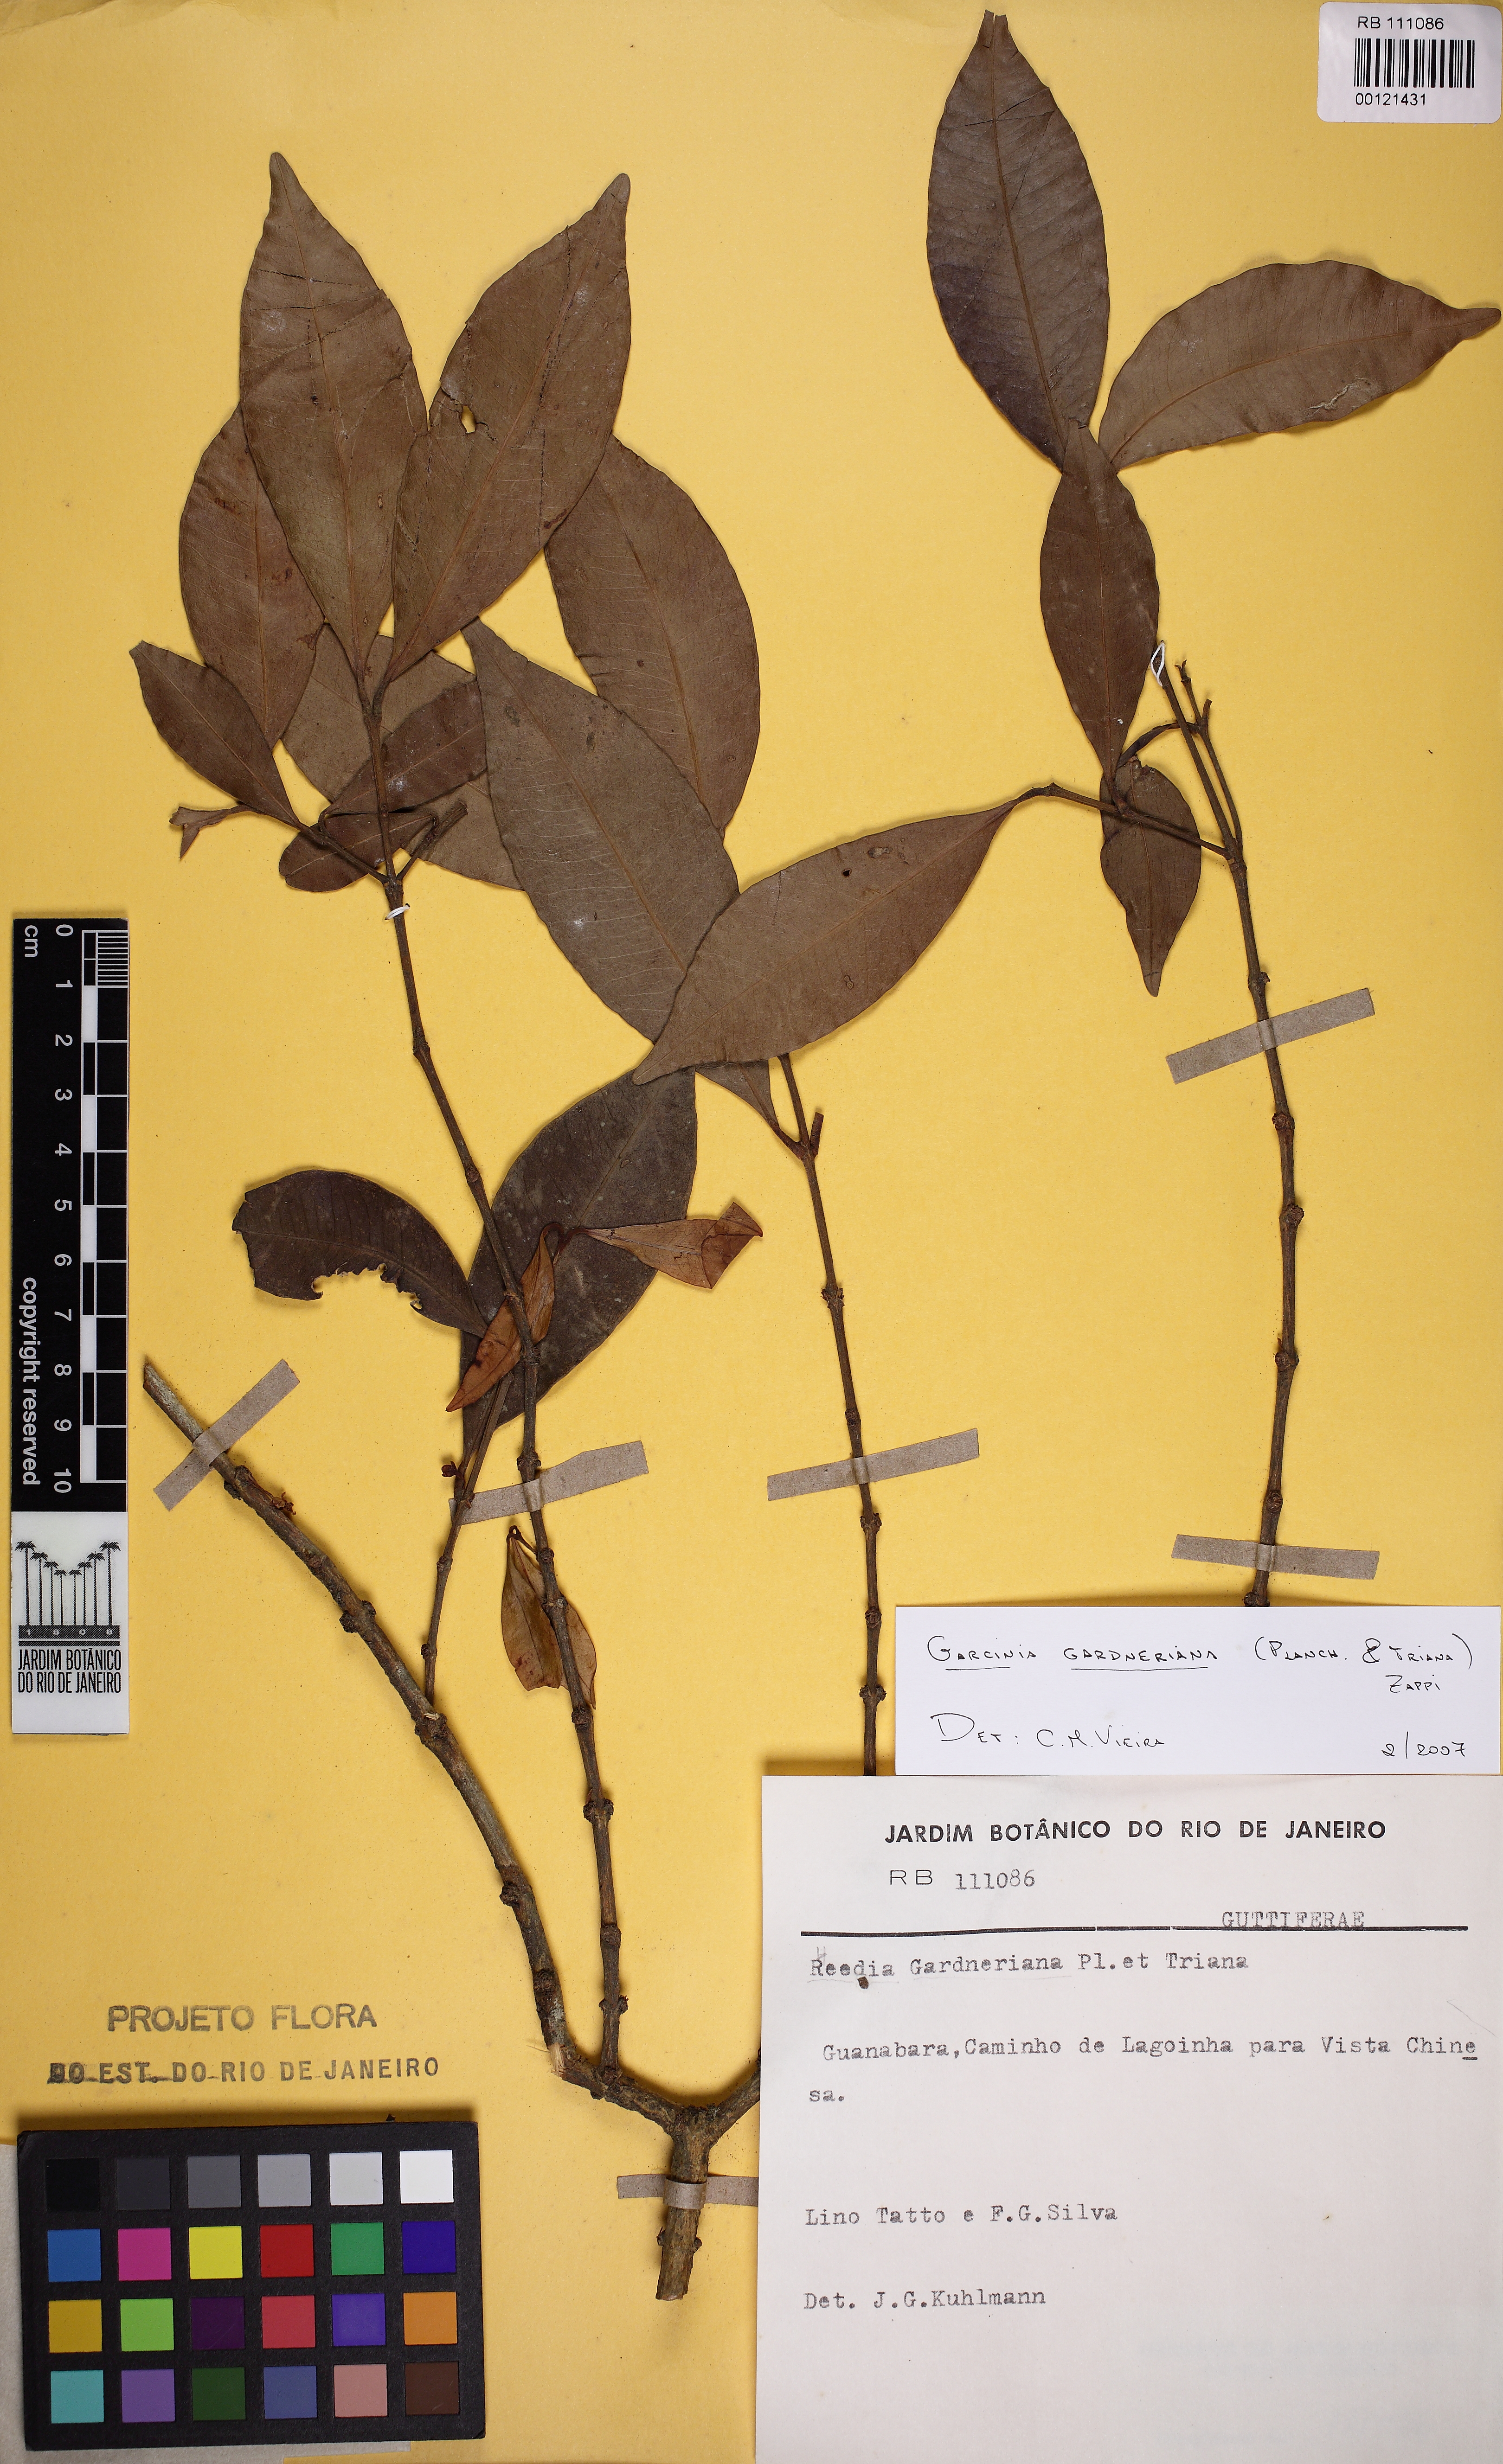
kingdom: Plantae
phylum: Tracheophyta
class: Magnoliopsida
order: Malpighiales
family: Clusiaceae
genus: Garcinia
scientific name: Garcinia gardneriana
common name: Achacha
